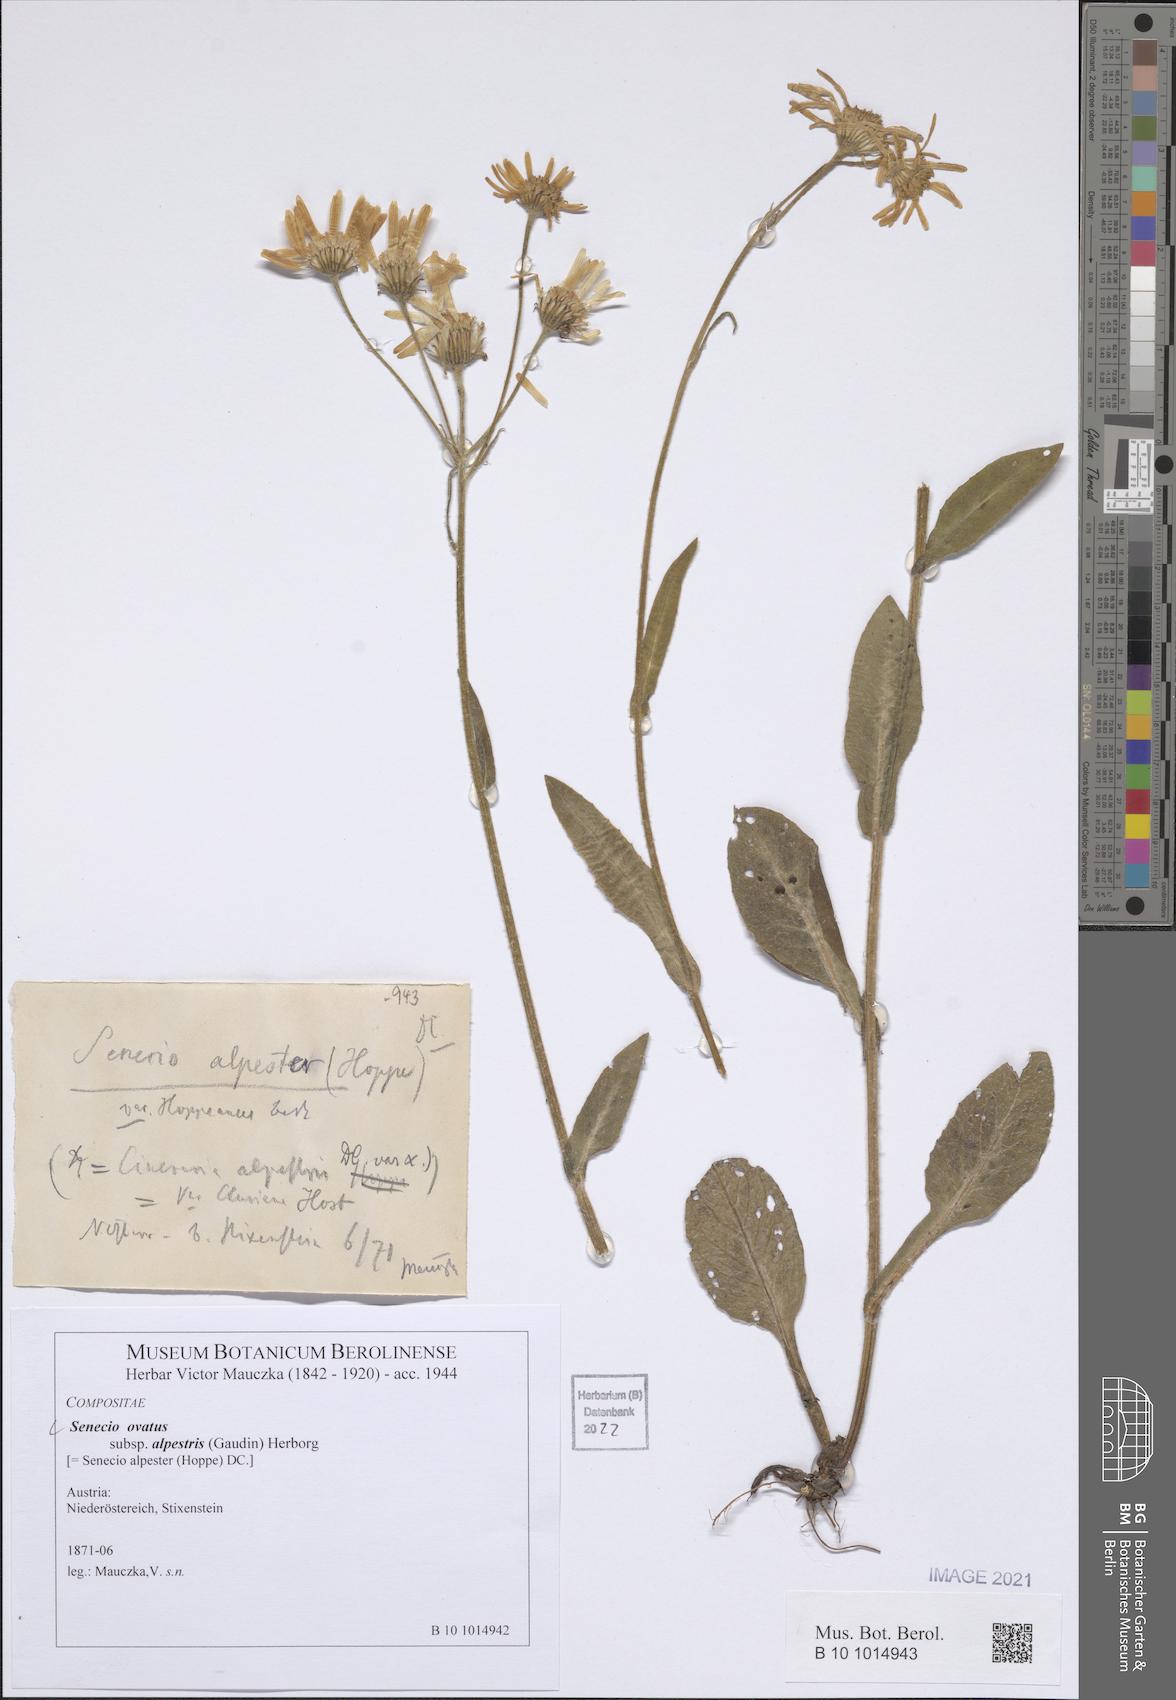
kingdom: Plantae
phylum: Tracheophyta
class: Magnoliopsida
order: Asterales
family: Asteraceae
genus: Senecio
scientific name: Senecio ovatus
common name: Wood ragwort
